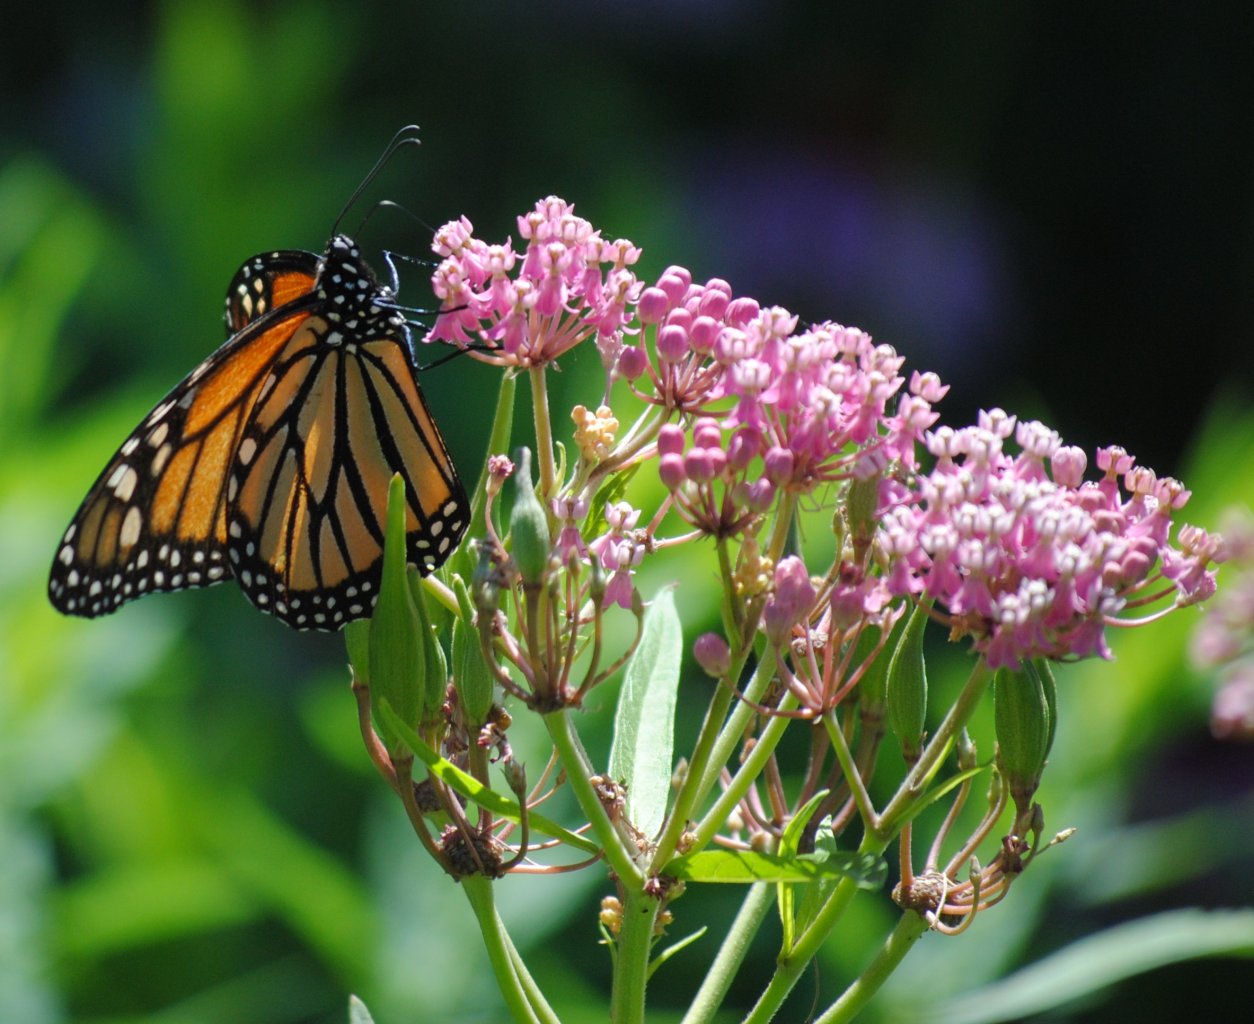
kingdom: Animalia
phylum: Arthropoda
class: Insecta
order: Lepidoptera
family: Nymphalidae
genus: Danaus
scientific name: Danaus plexippus
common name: Monarch
